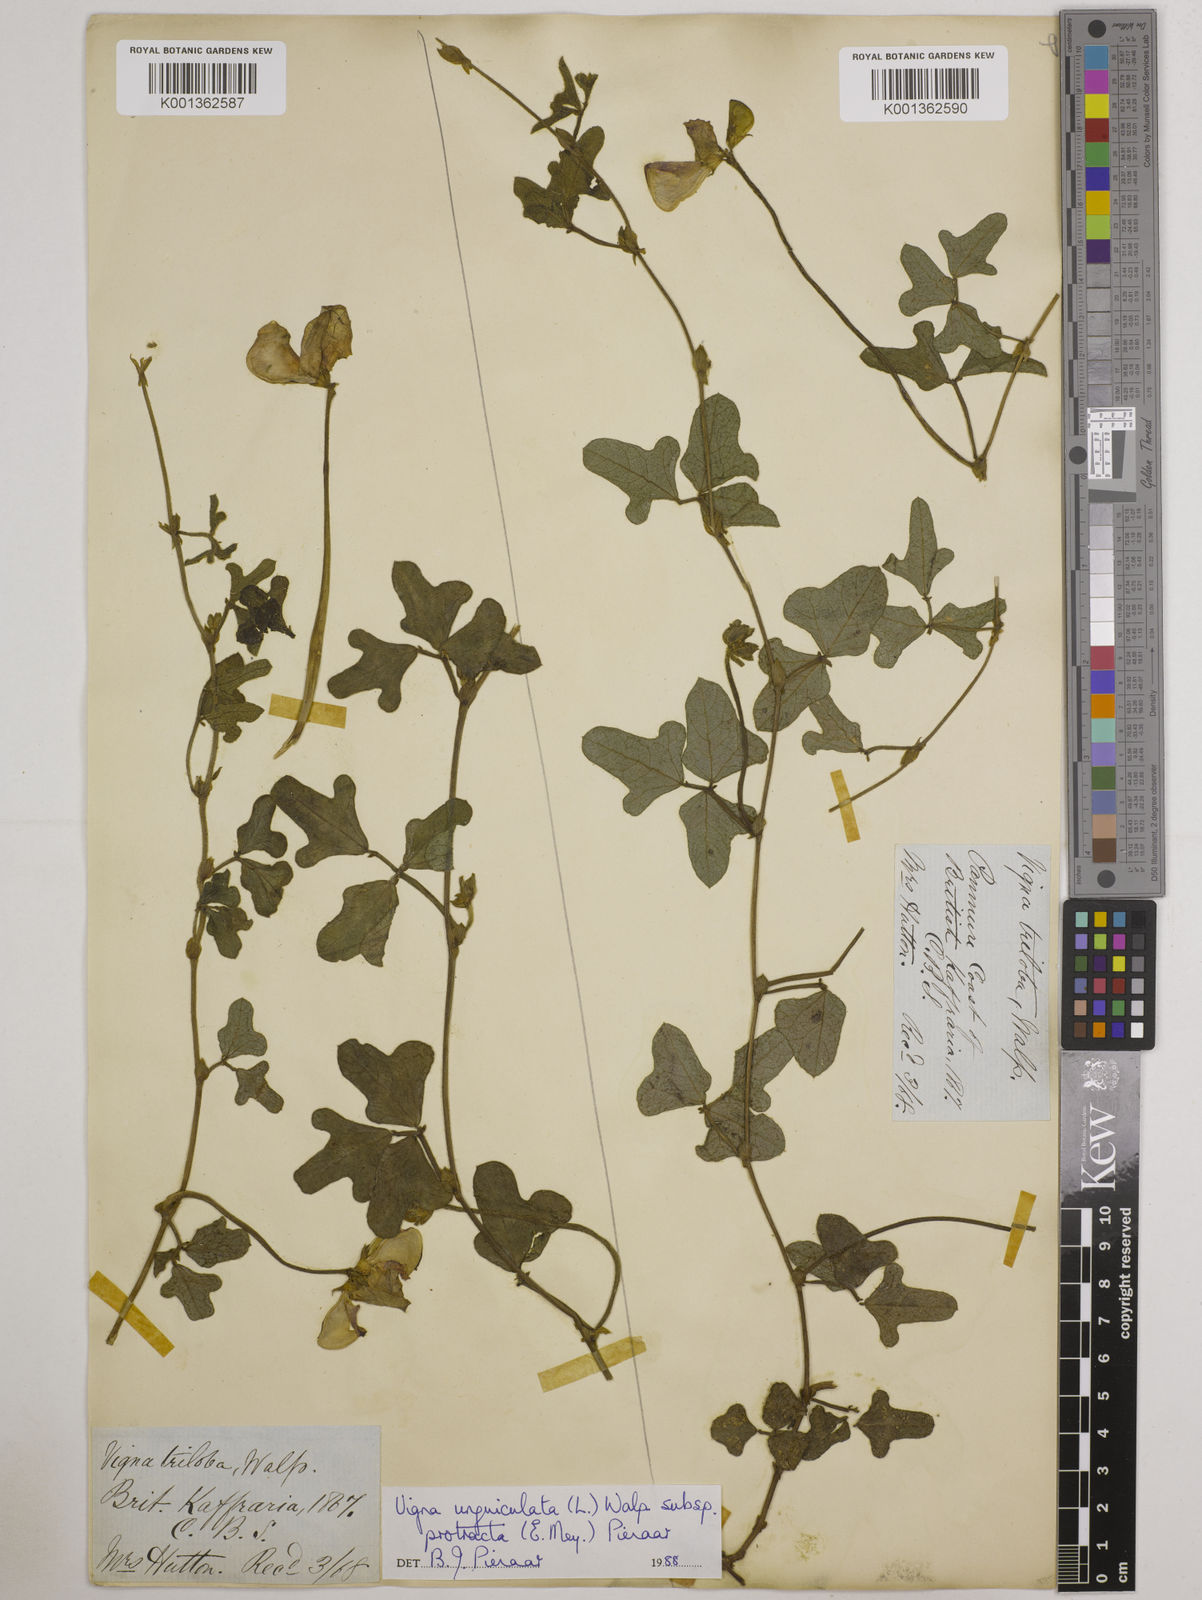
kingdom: Plantae
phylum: Tracheophyta
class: Magnoliopsida
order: Fabales
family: Fabaceae
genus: Vigna
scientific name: Vigna unguiculata
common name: Cowpea
